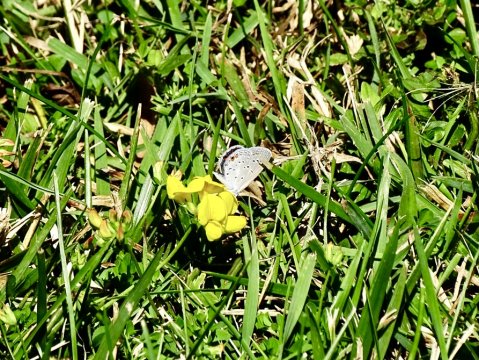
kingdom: Animalia
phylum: Arthropoda
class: Insecta
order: Lepidoptera
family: Lycaenidae
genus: Elkalyce
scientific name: Elkalyce comyntas
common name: Eastern Tailed-Blue
